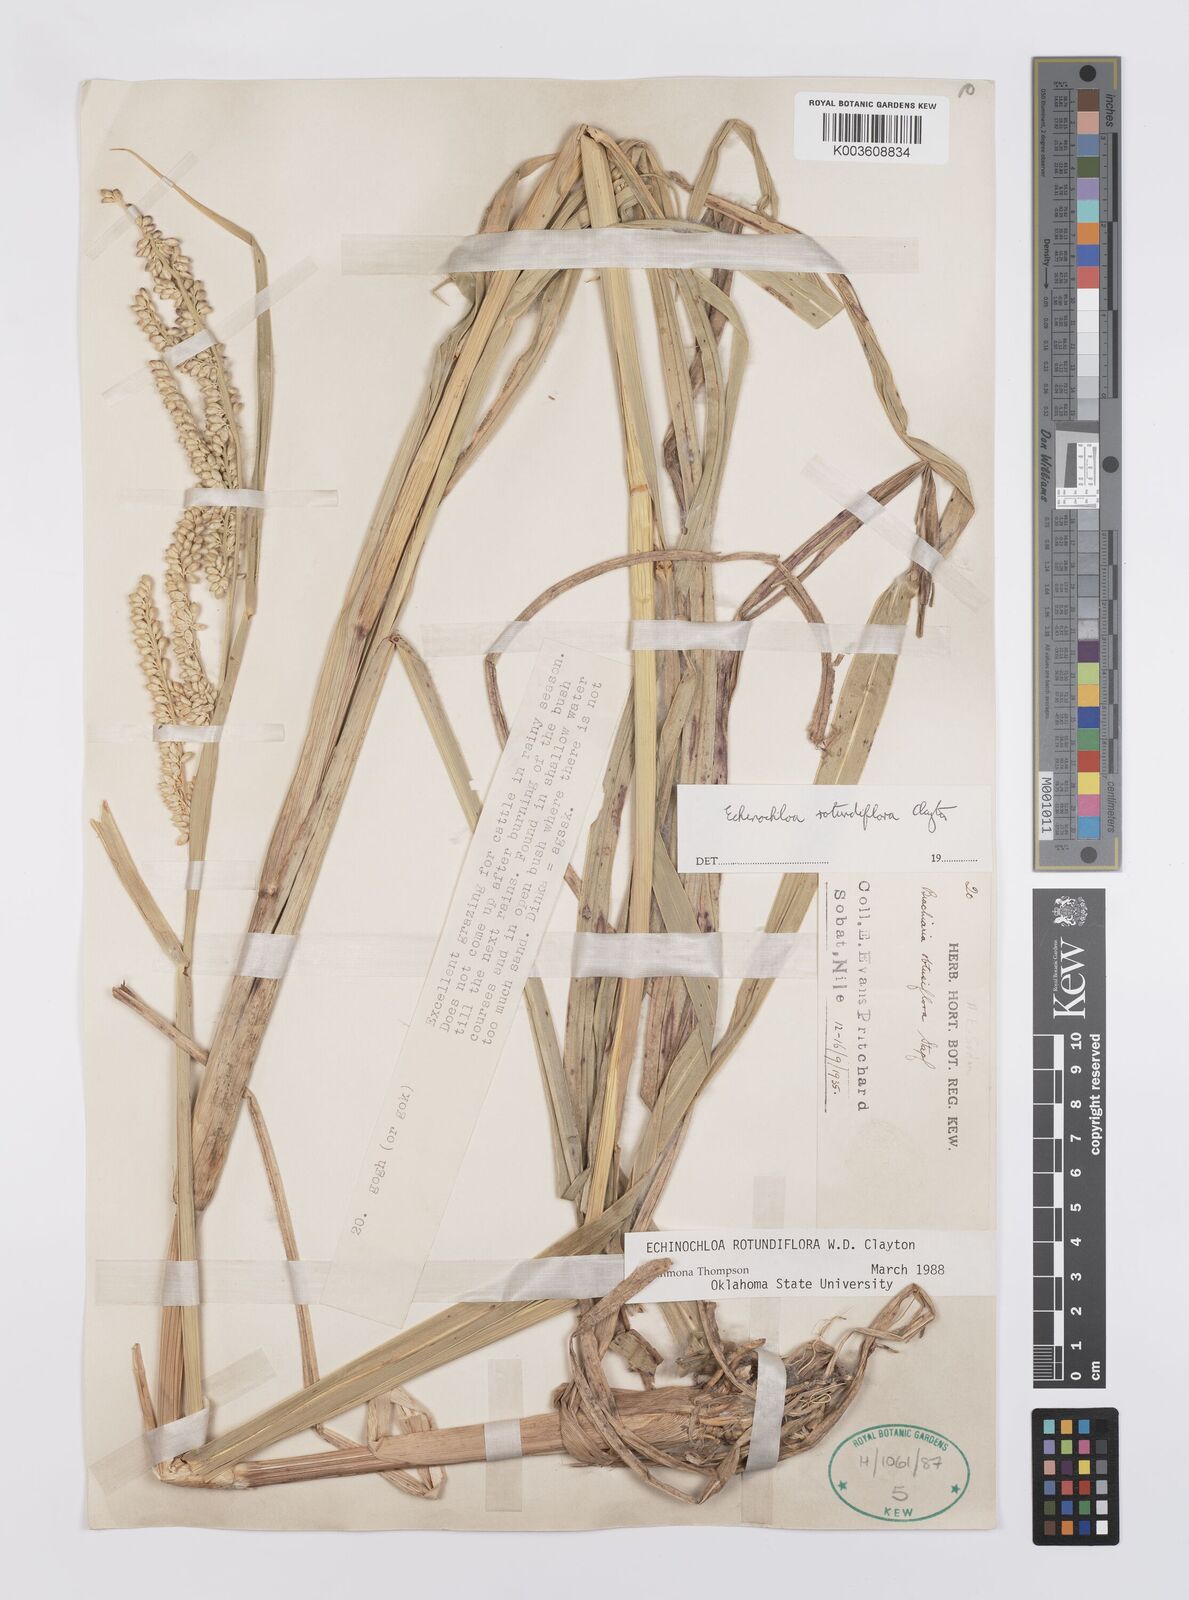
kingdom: Plantae
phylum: Tracheophyta
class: Liliopsida
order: Poales
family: Poaceae
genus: Echinochloa
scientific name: Echinochloa rotundiflora
